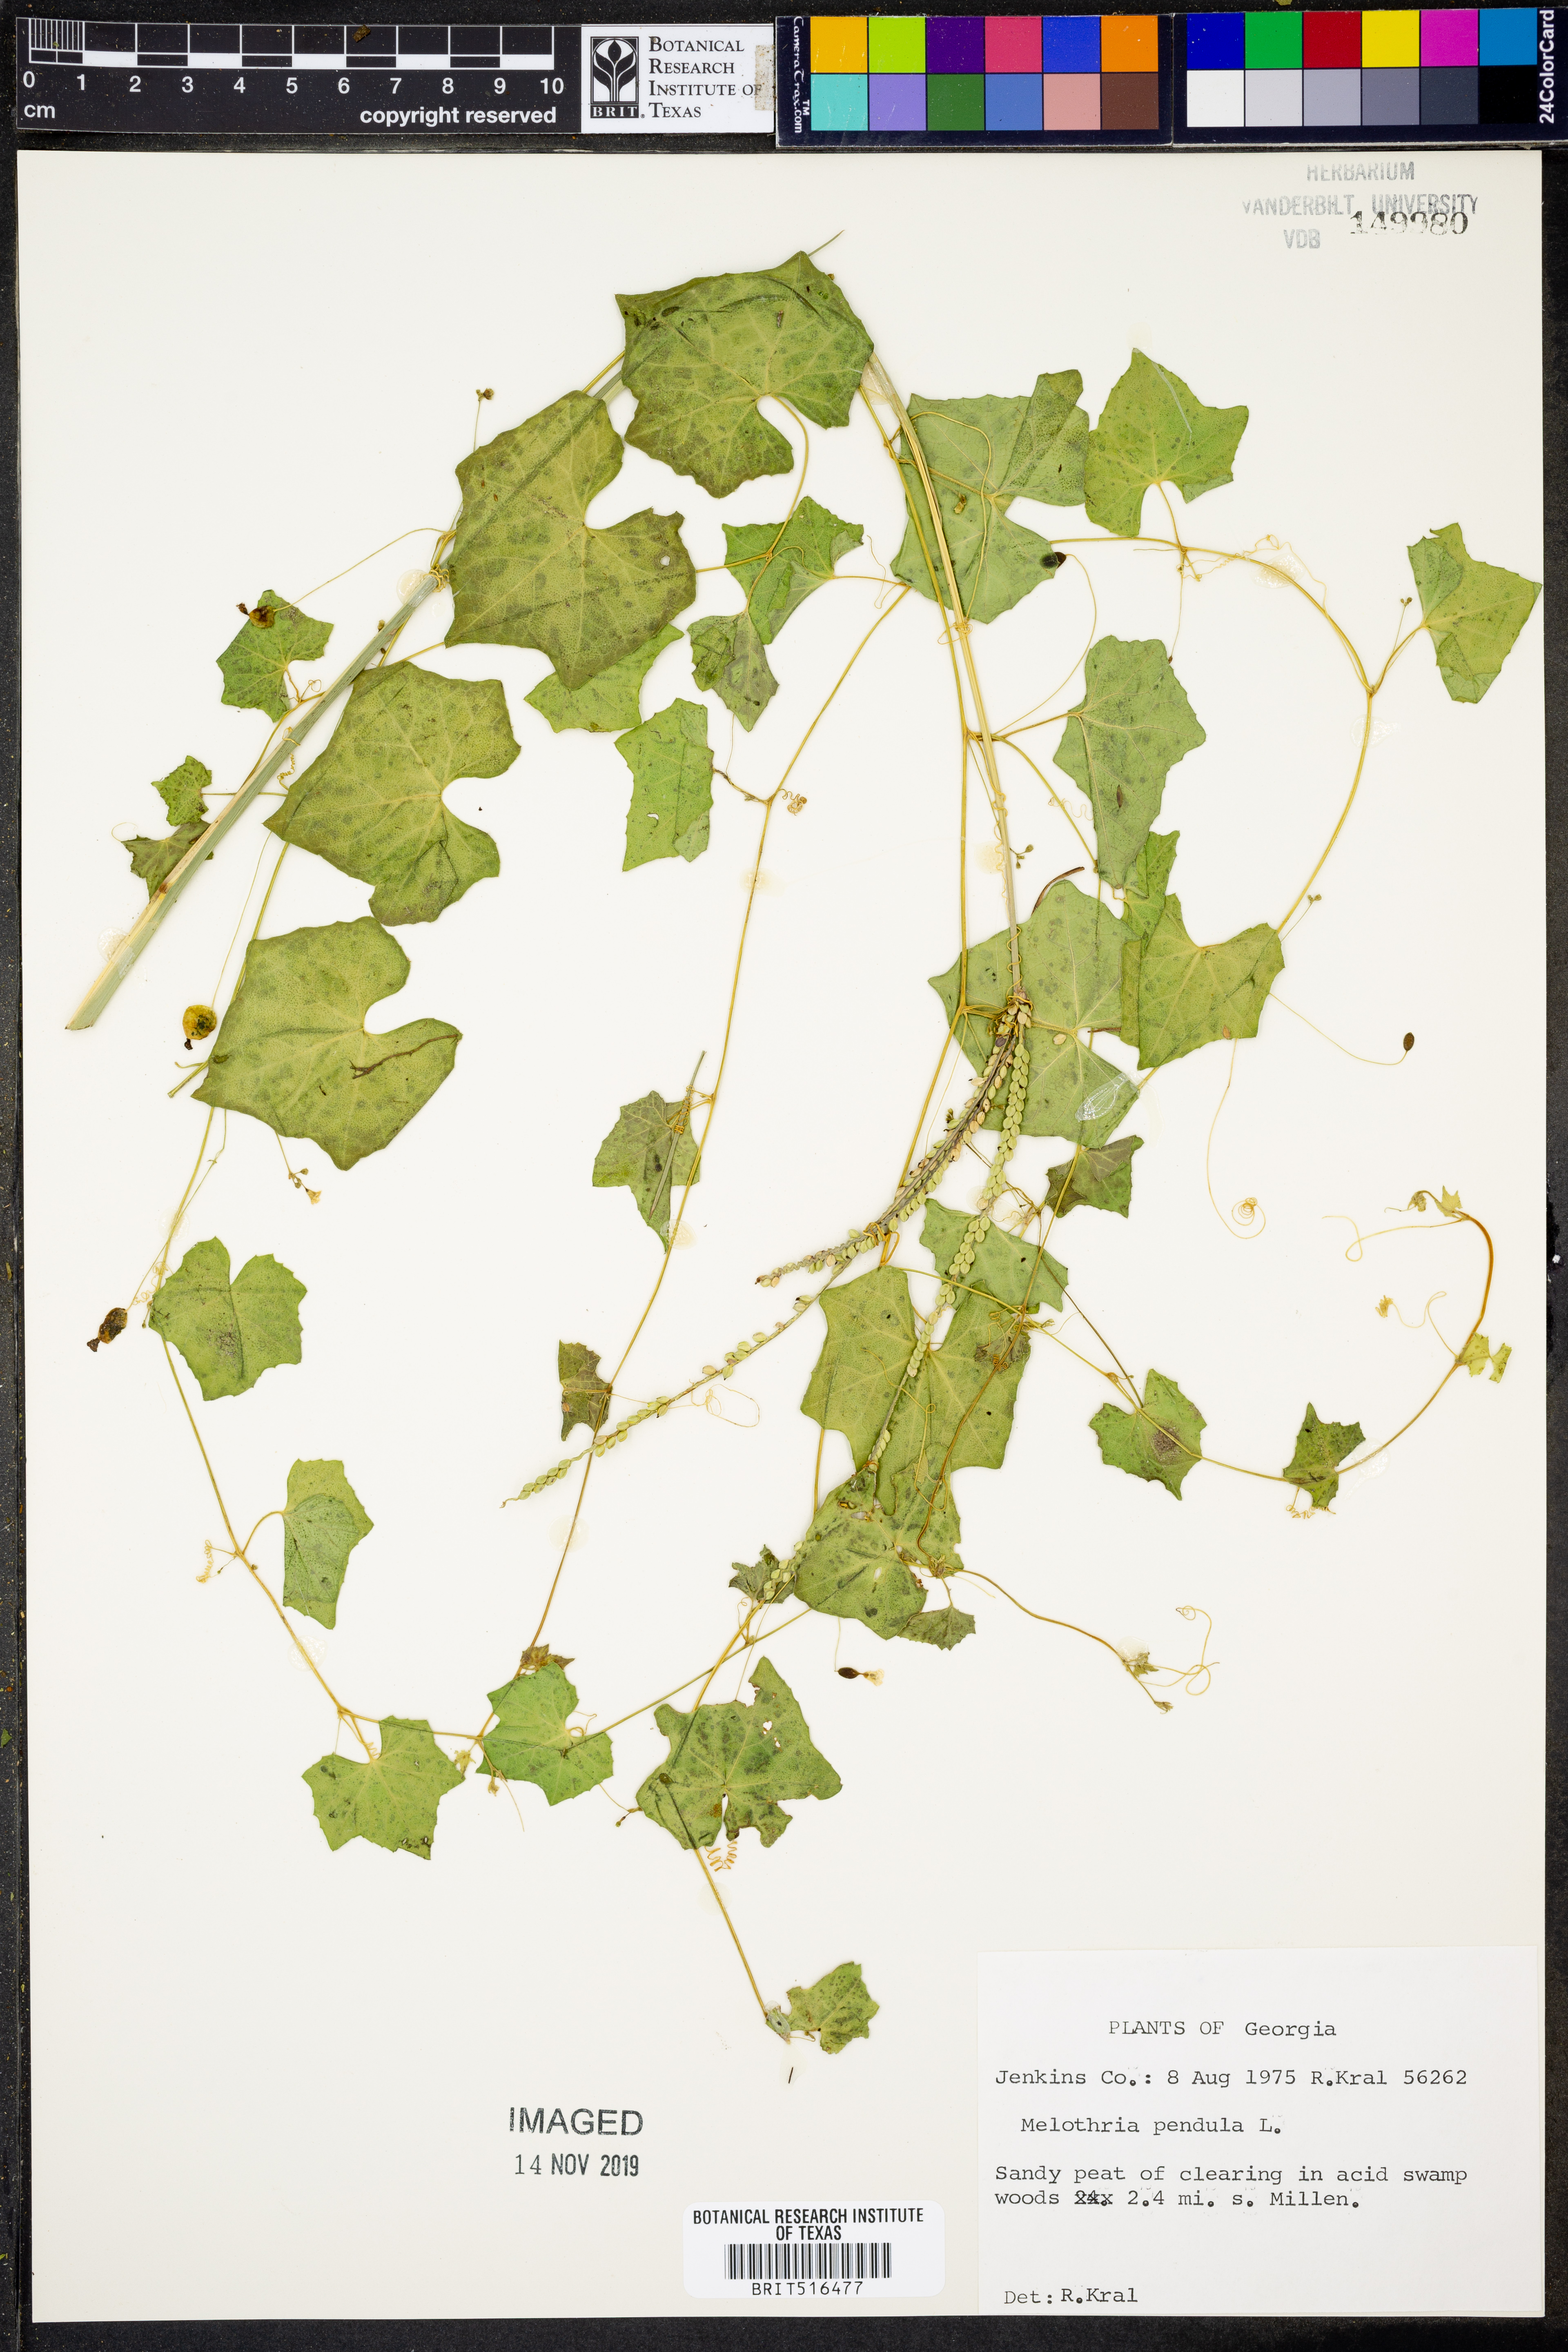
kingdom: Plantae
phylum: Tracheophyta
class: Magnoliopsida
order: Cucurbitales
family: Cucurbitaceae
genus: Melothria
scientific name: Melothria pendula
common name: Creeping-cucumber
